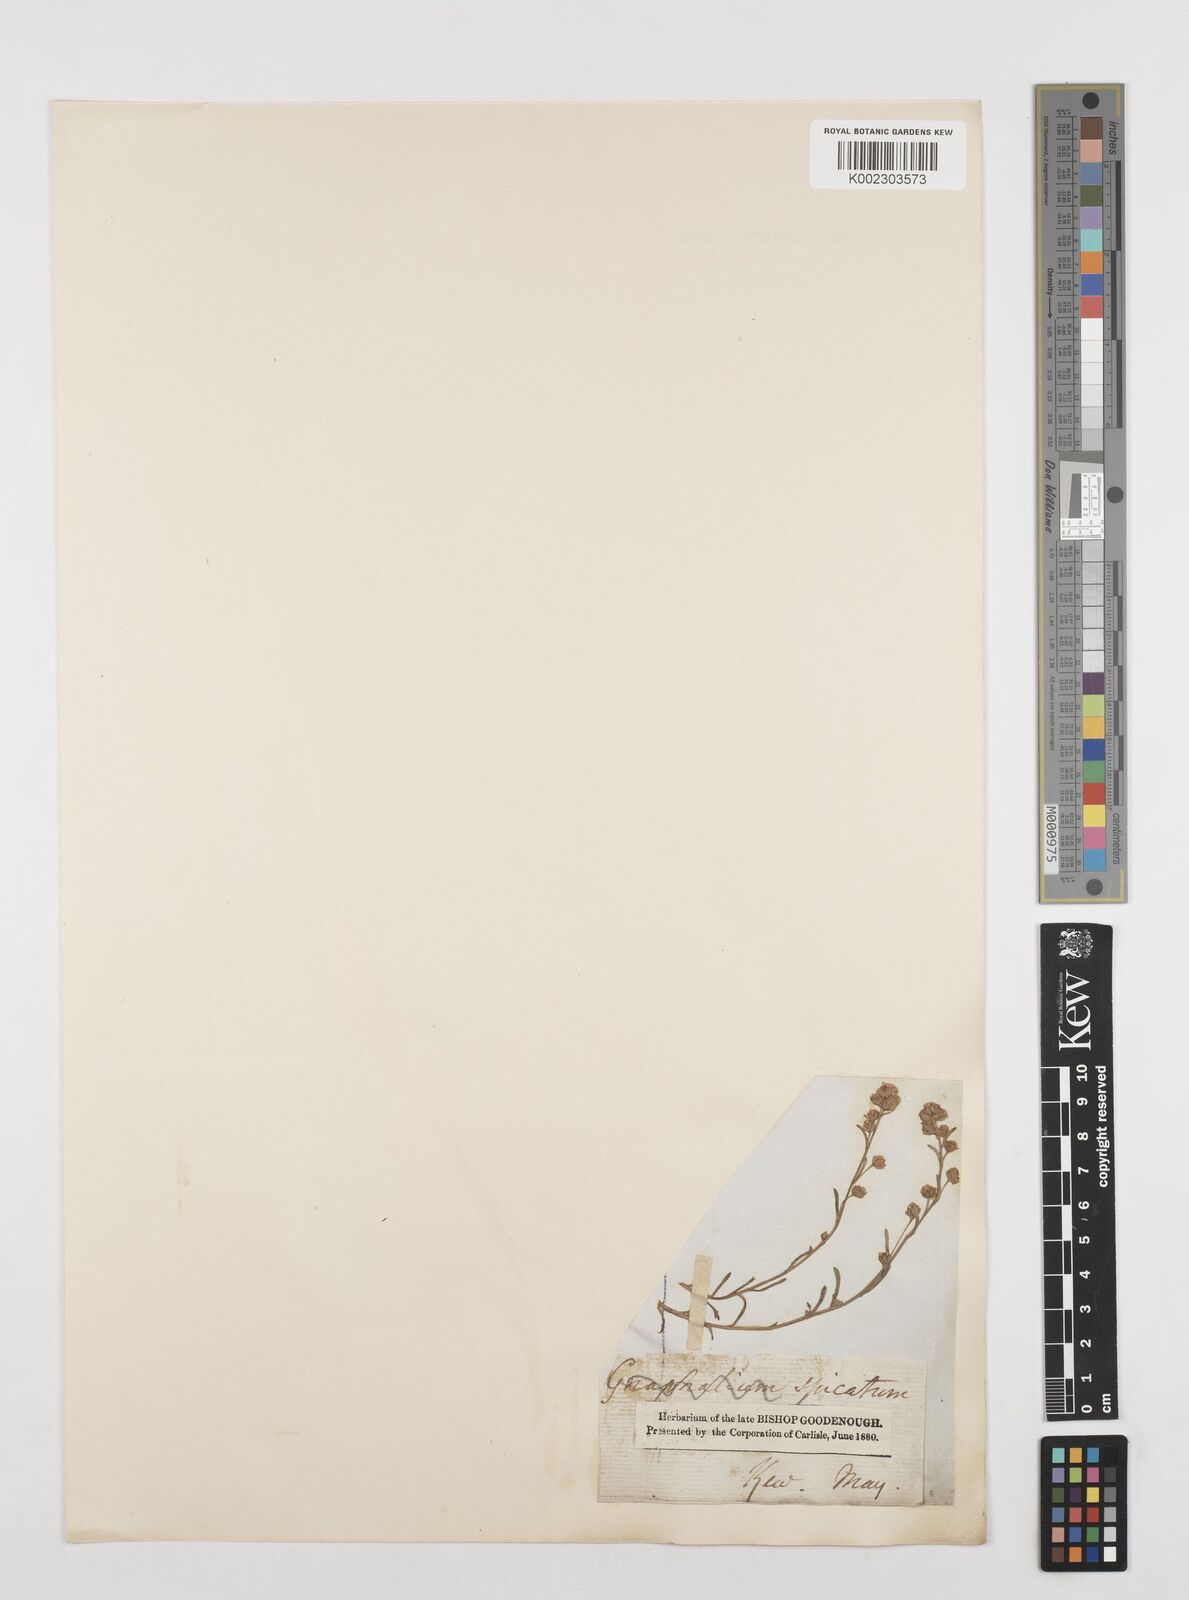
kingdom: Plantae
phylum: Tracheophyta
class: Magnoliopsida
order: Asterales
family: Asteraceae
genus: Artemisia
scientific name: Artemisia alba
